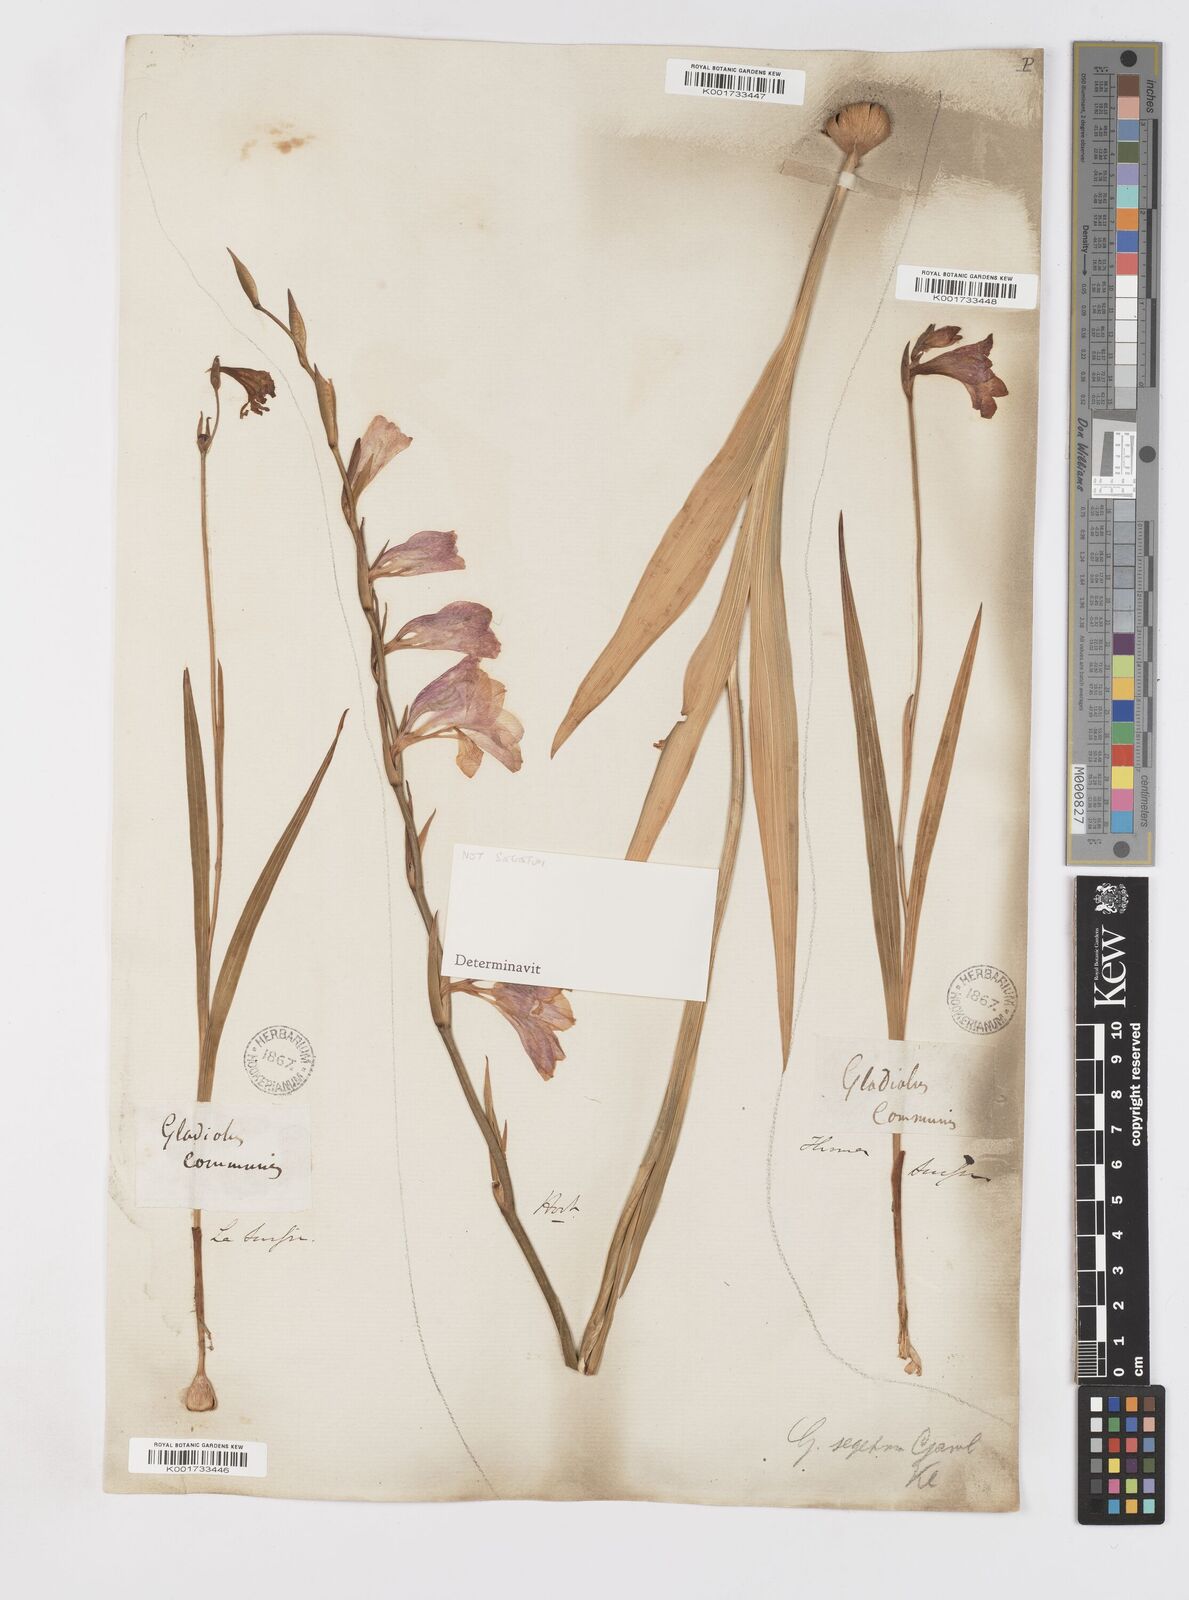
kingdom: Plantae
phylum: Tracheophyta
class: Liliopsida
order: Asparagales
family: Iridaceae
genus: Gladiolus
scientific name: Gladiolus italicus
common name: Field gladiolus
